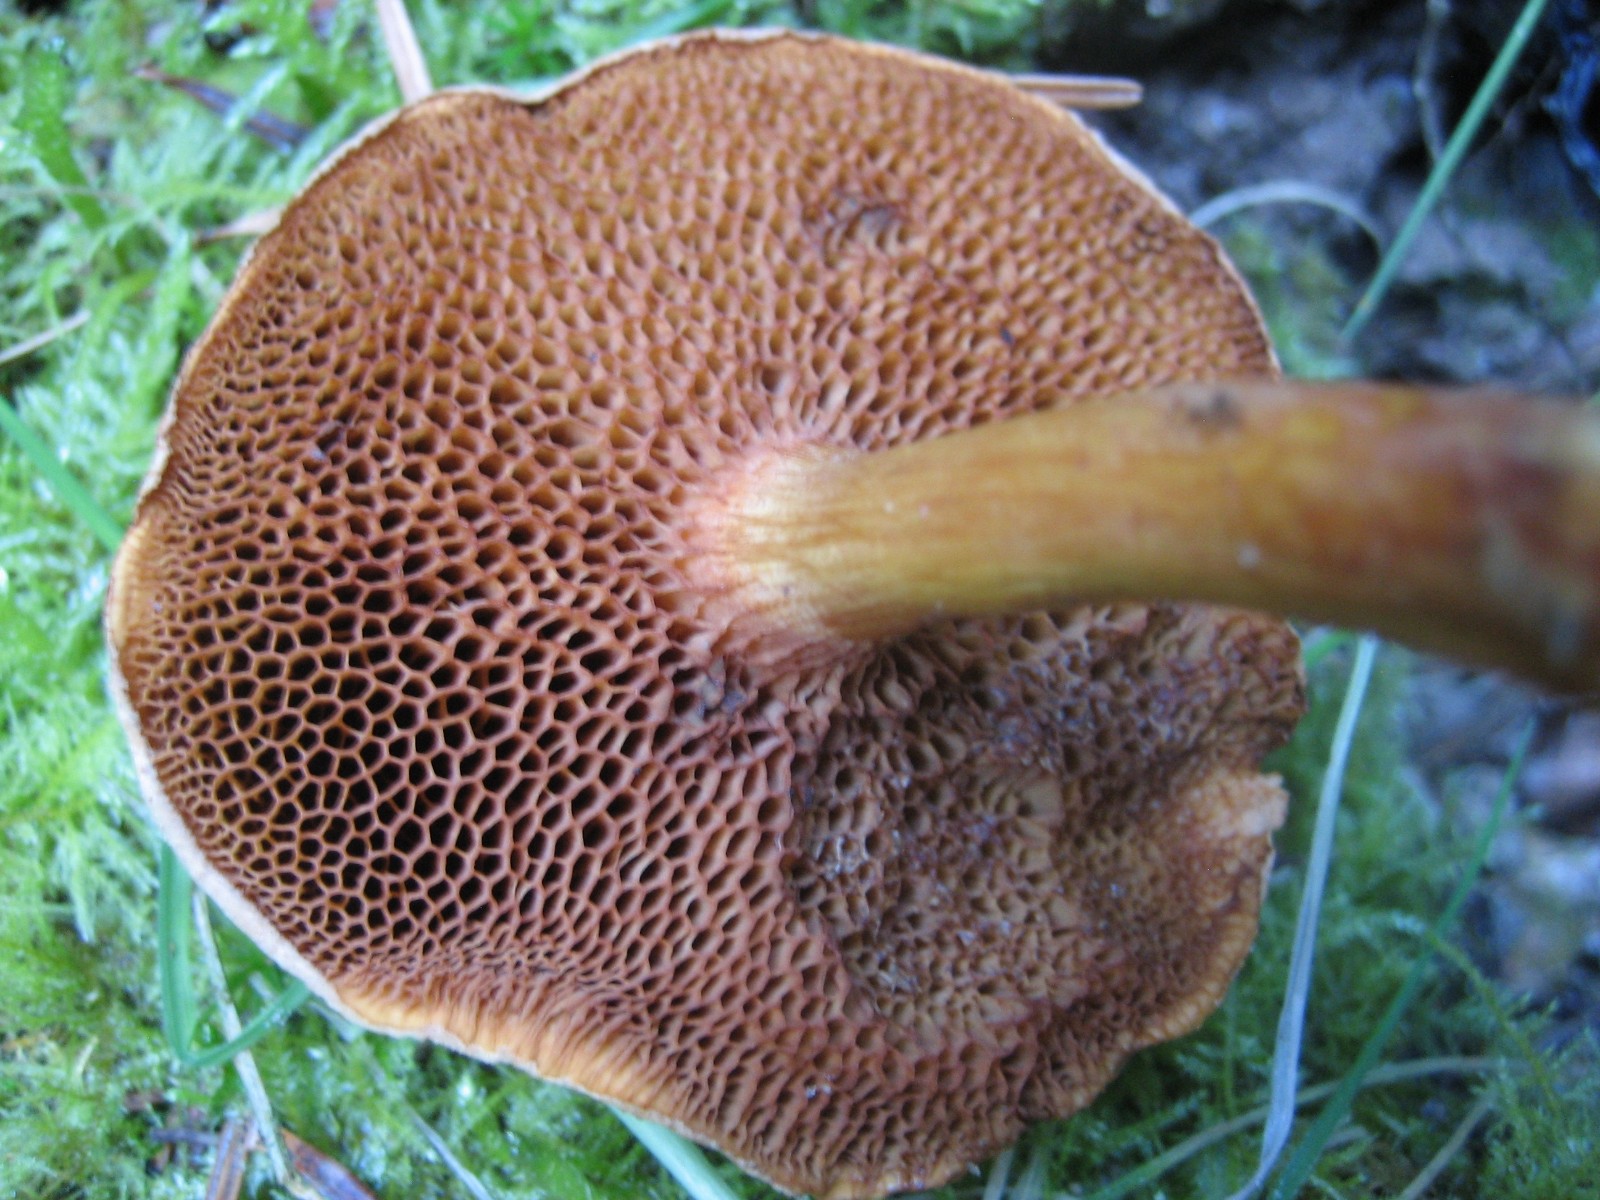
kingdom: Fungi
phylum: Basidiomycota
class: Agaricomycetes
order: Boletales
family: Boletaceae
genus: Chalciporus
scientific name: Chalciporus piperatus
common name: peberrørhat
